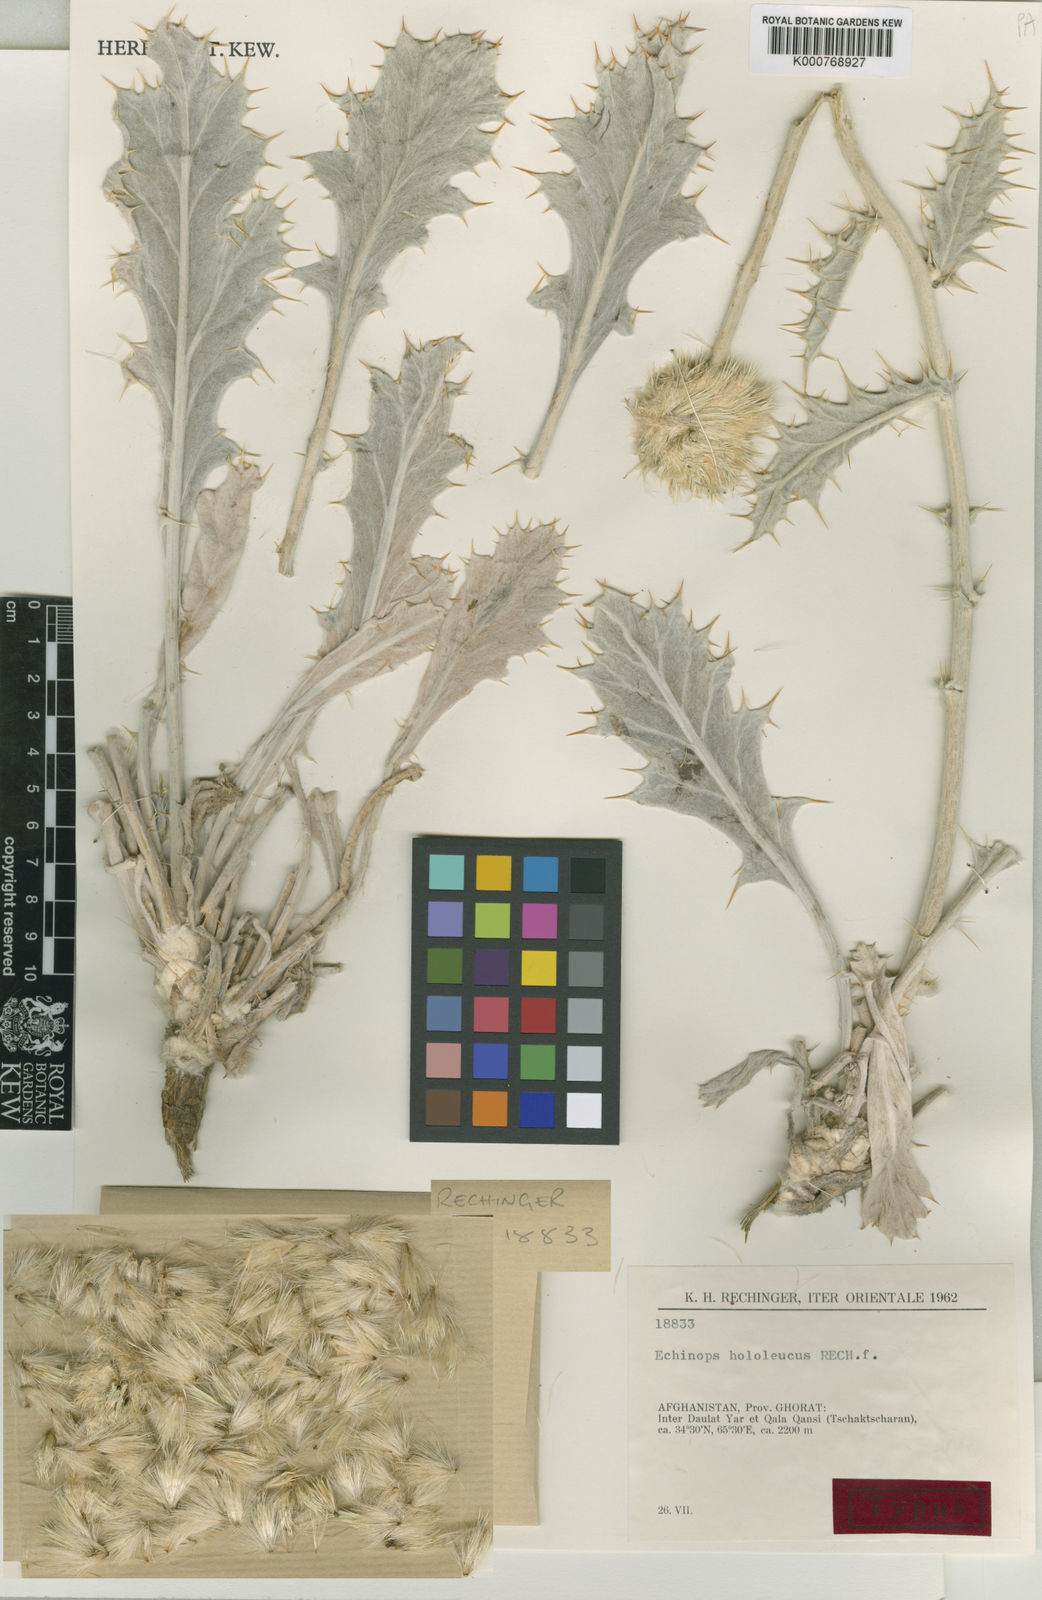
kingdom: Plantae
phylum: Tracheophyta
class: Magnoliopsida
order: Asterales
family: Asteraceae
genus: Echinops
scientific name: Echinops hololeucus
